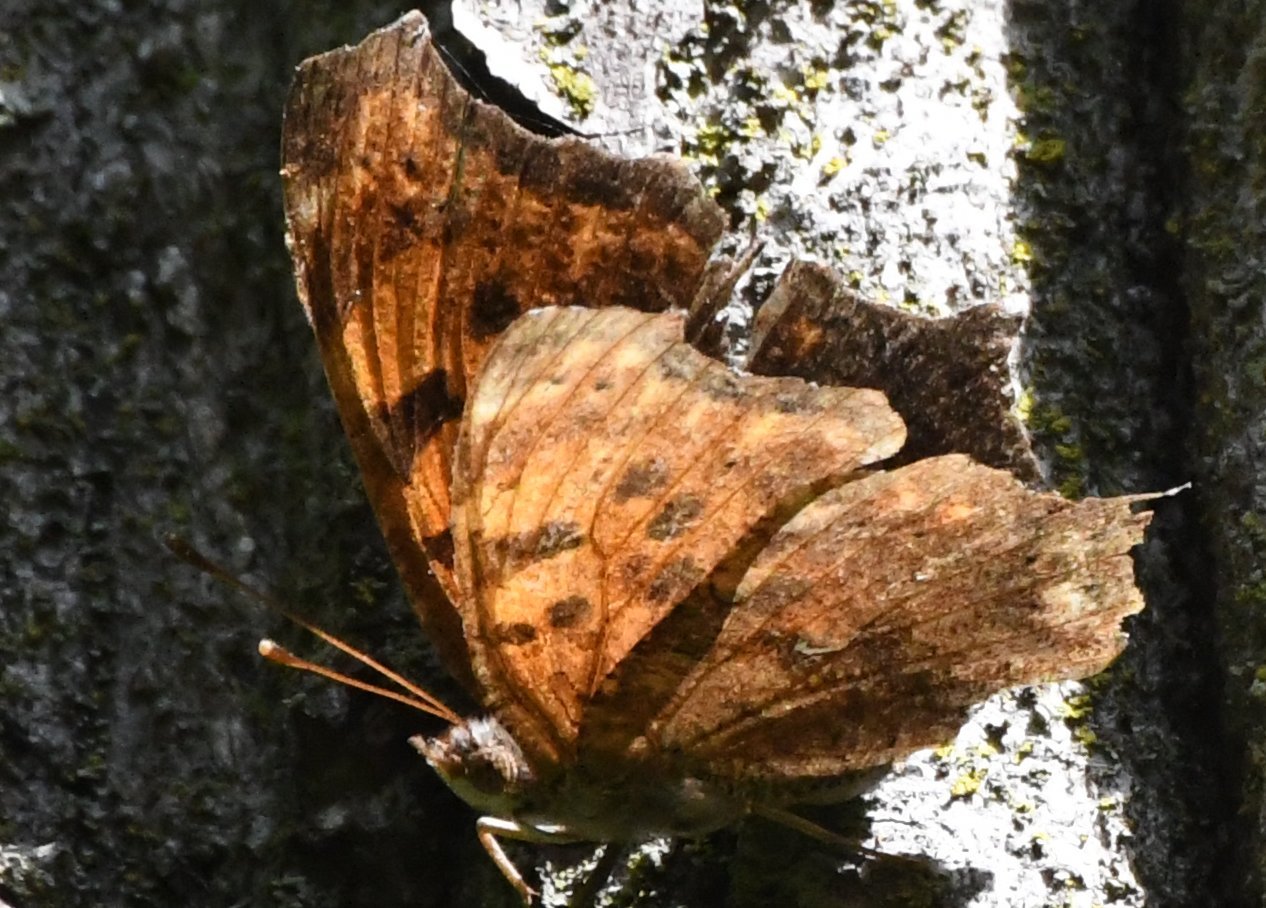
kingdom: Animalia
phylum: Arthropoda
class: Insecta
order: Lepidoptera
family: Nymphalidae
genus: Polygonia
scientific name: Polygonia comma
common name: Eastern Comma
